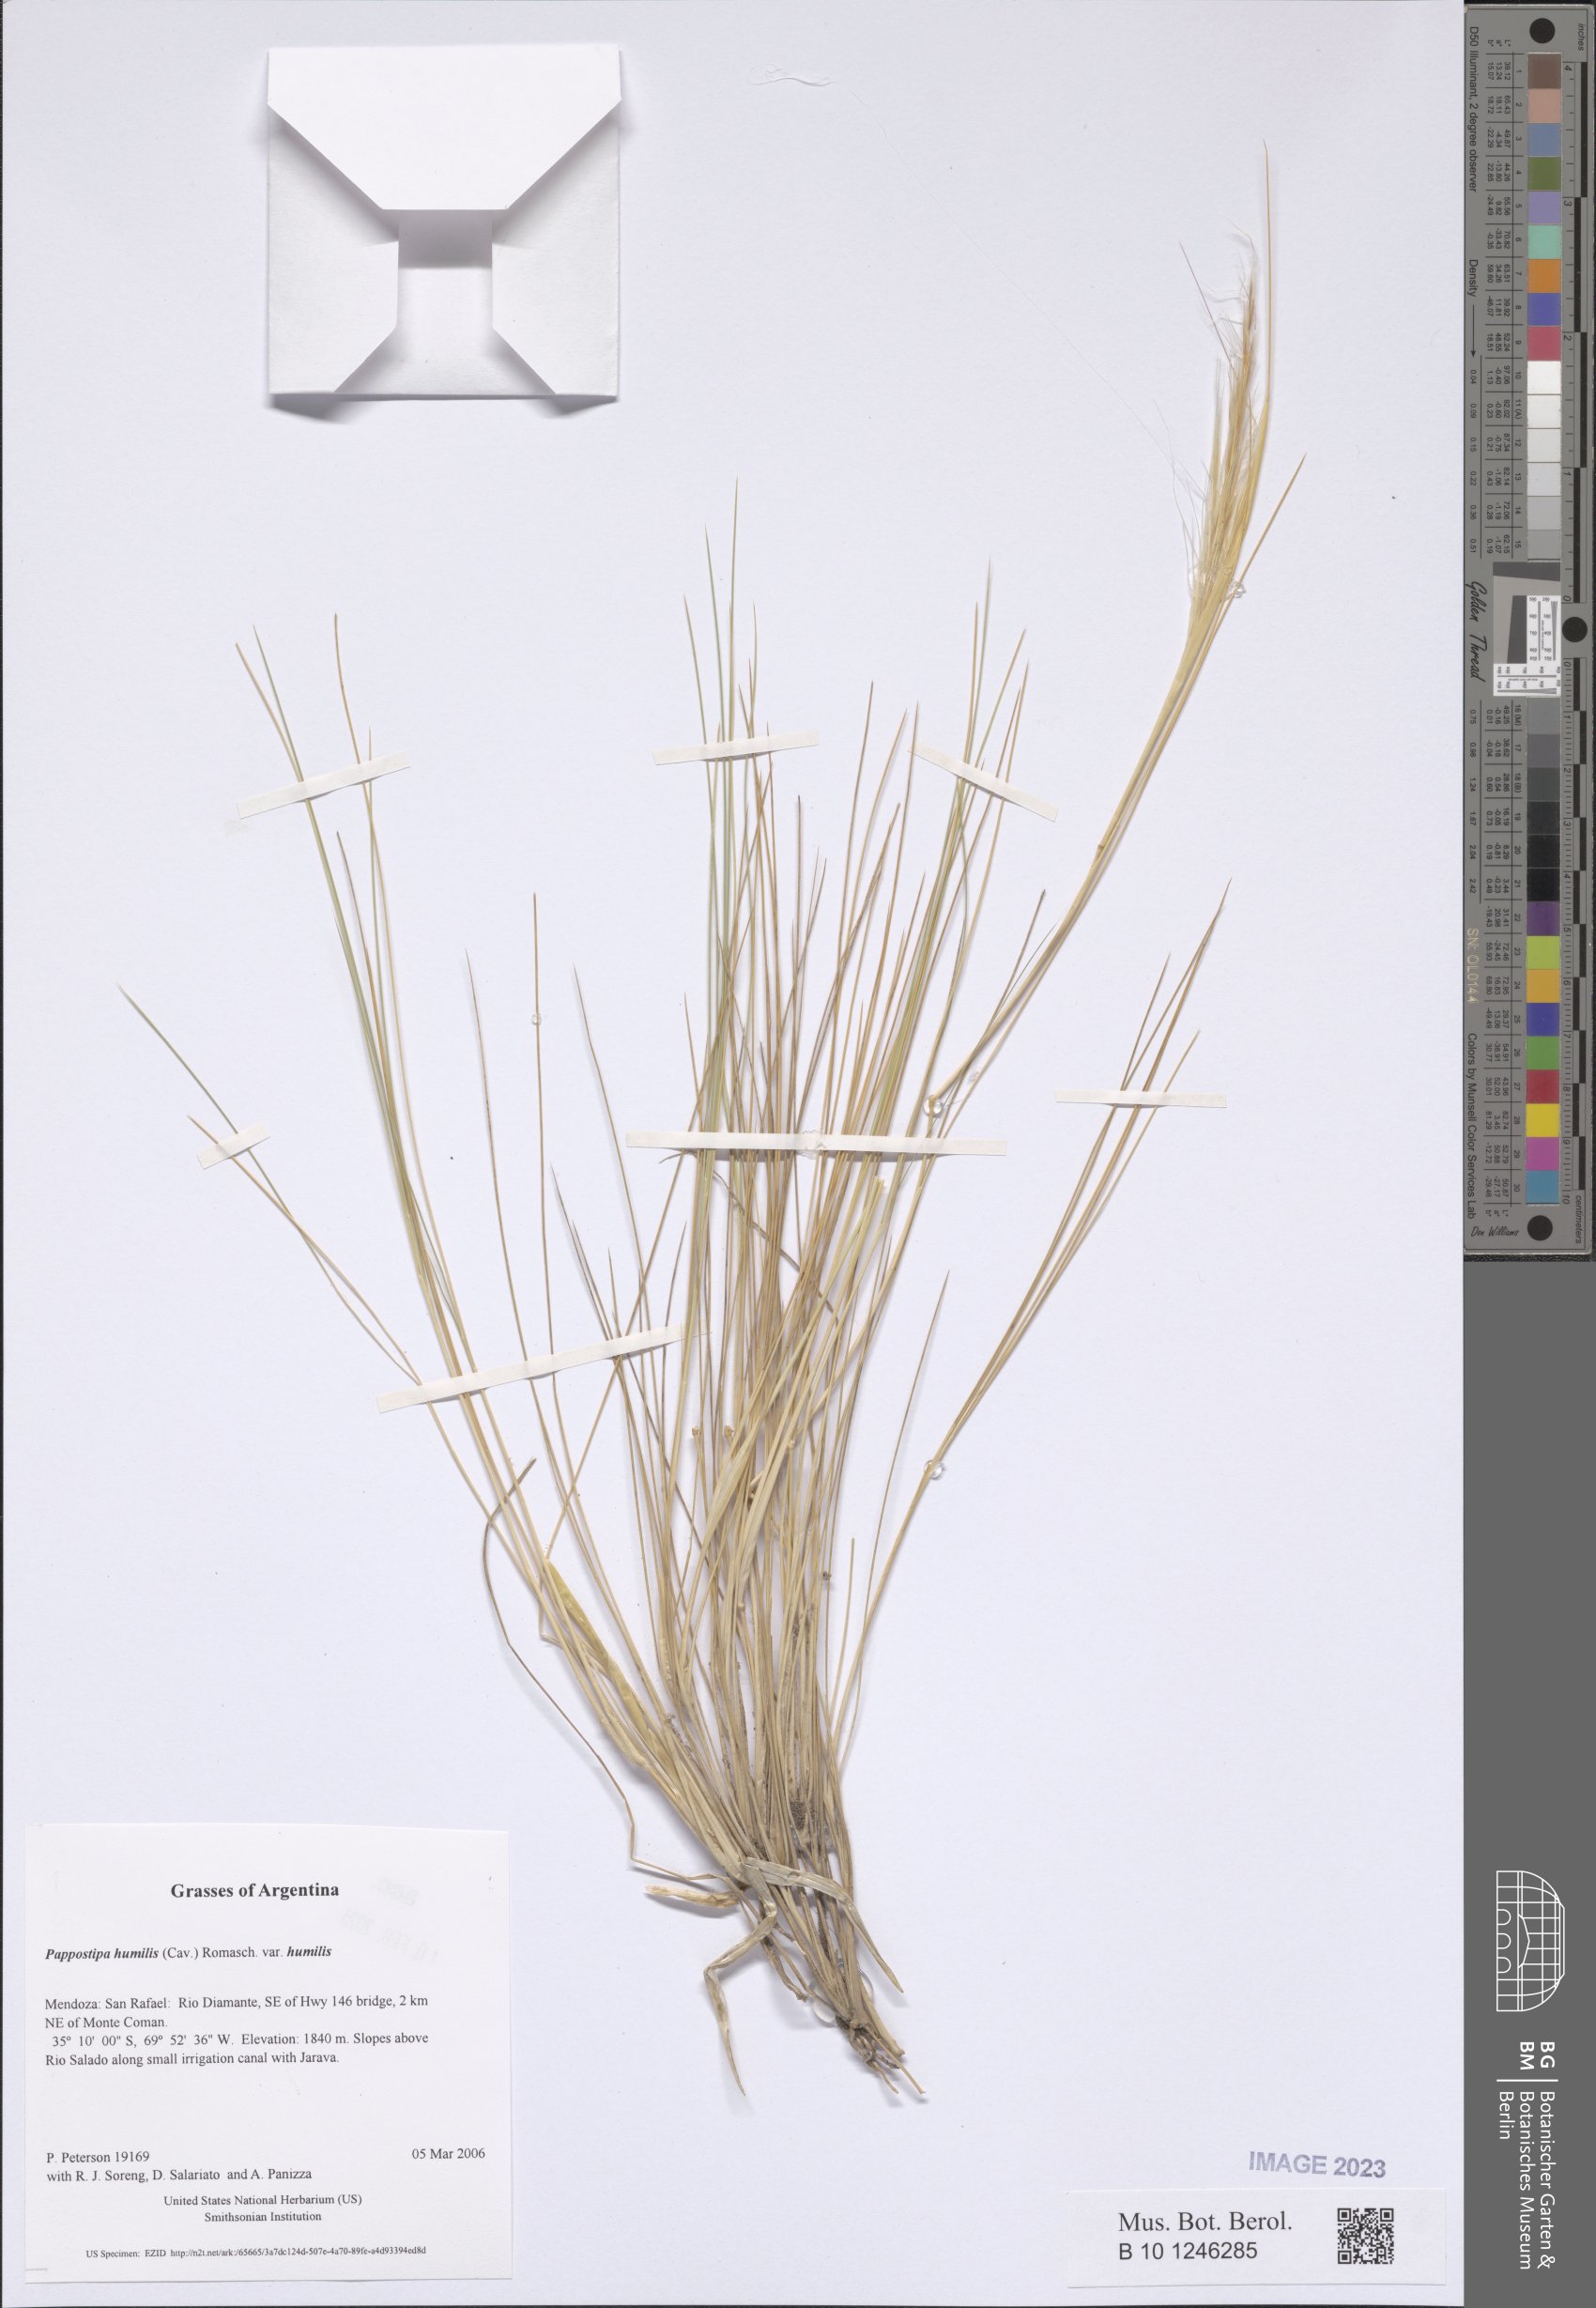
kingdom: Plantae
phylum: Tracheophyta
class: Liliopsida
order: Poales
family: Poaceae
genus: Pappostipa
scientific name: Pappostipa humilis
